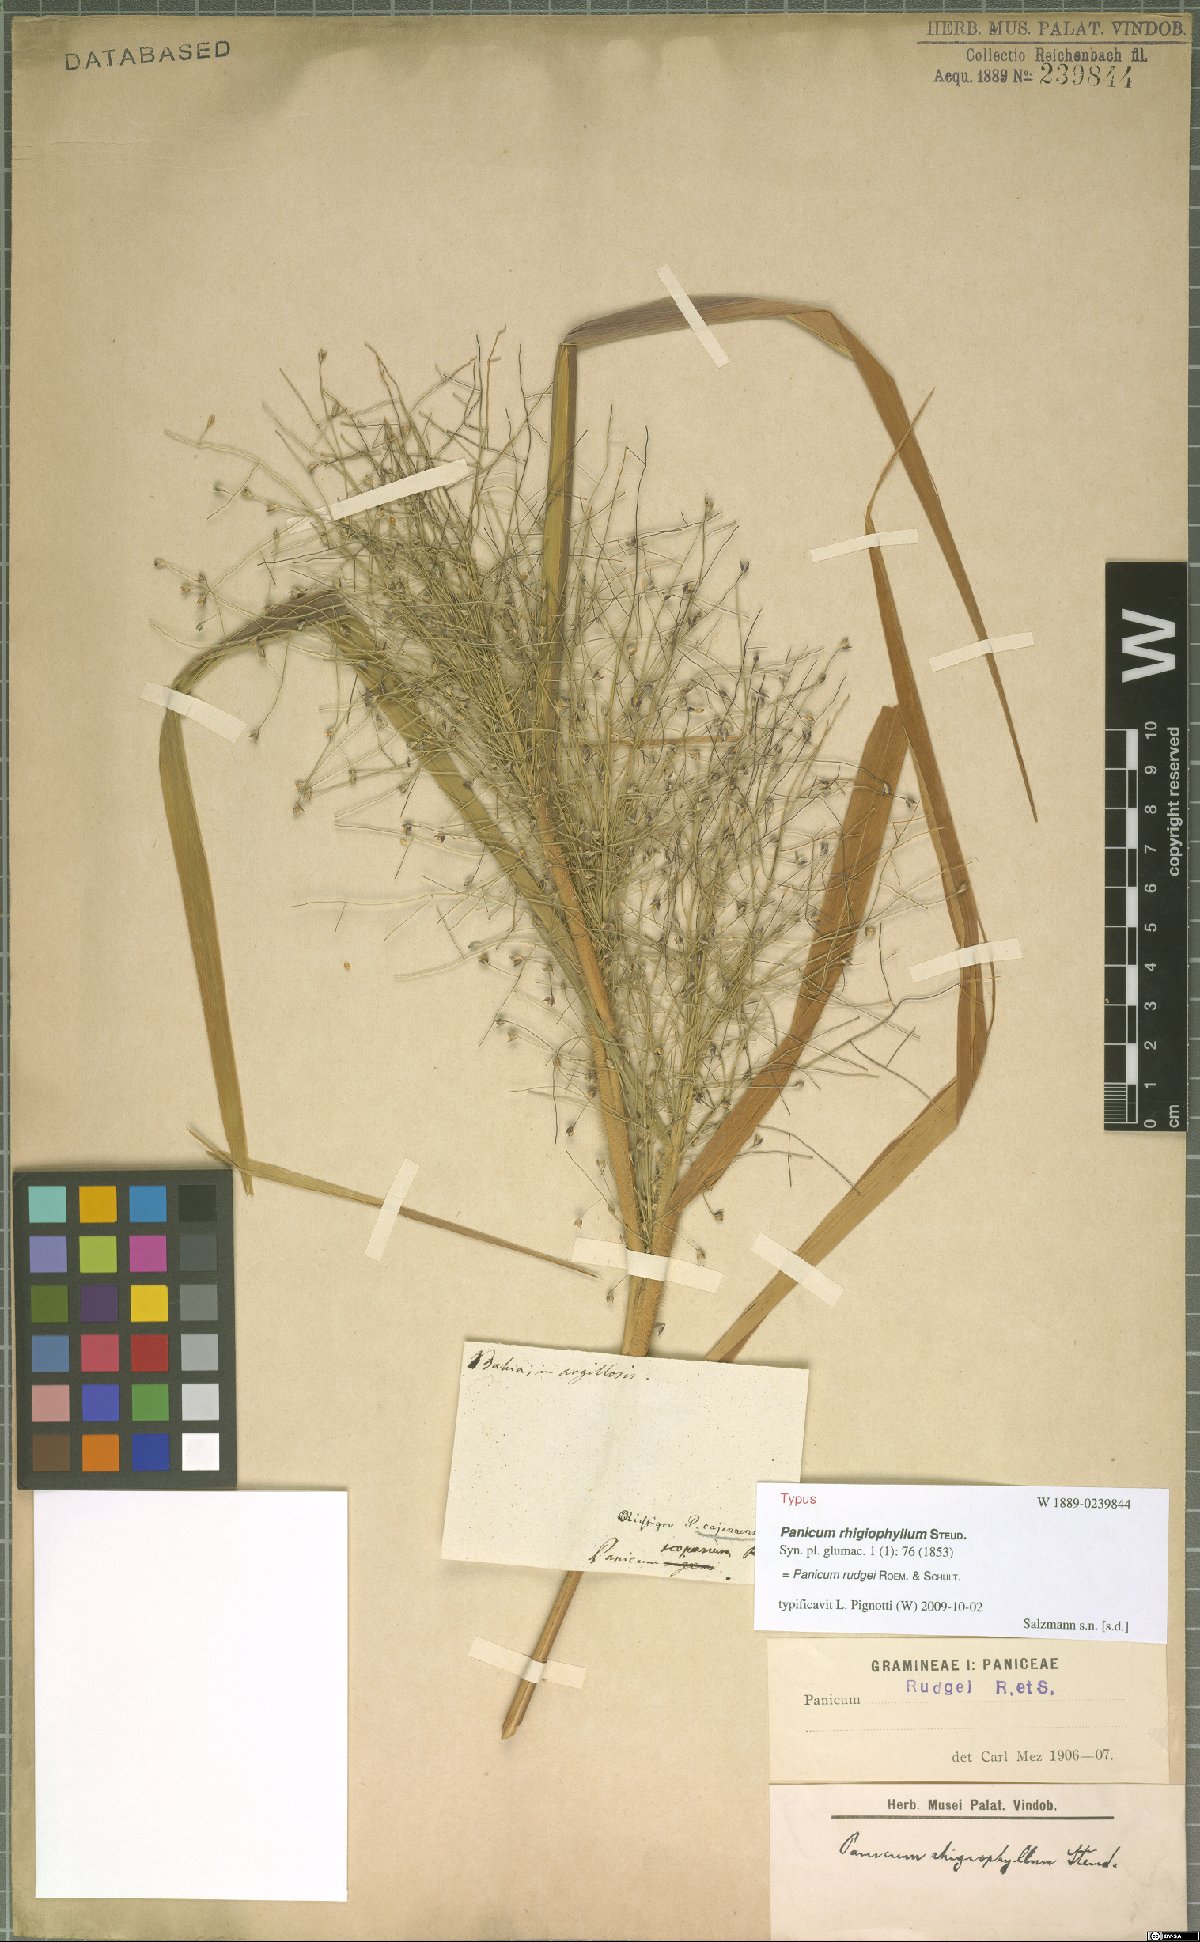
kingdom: Plantae
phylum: Tracheophyta
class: Liliopsida
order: Poales
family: Poaceae
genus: Panicum
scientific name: Panicum rudgei
